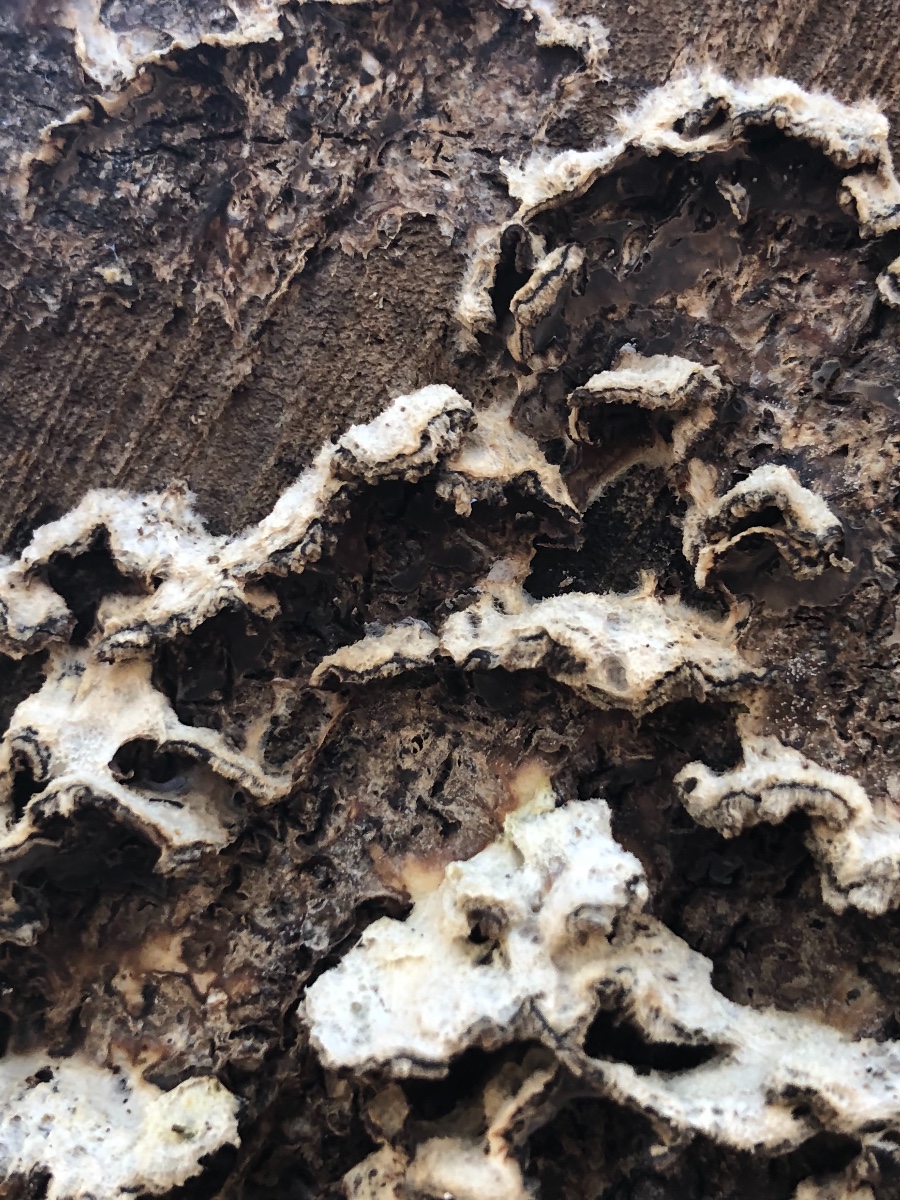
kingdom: Fungi
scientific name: Fungi
